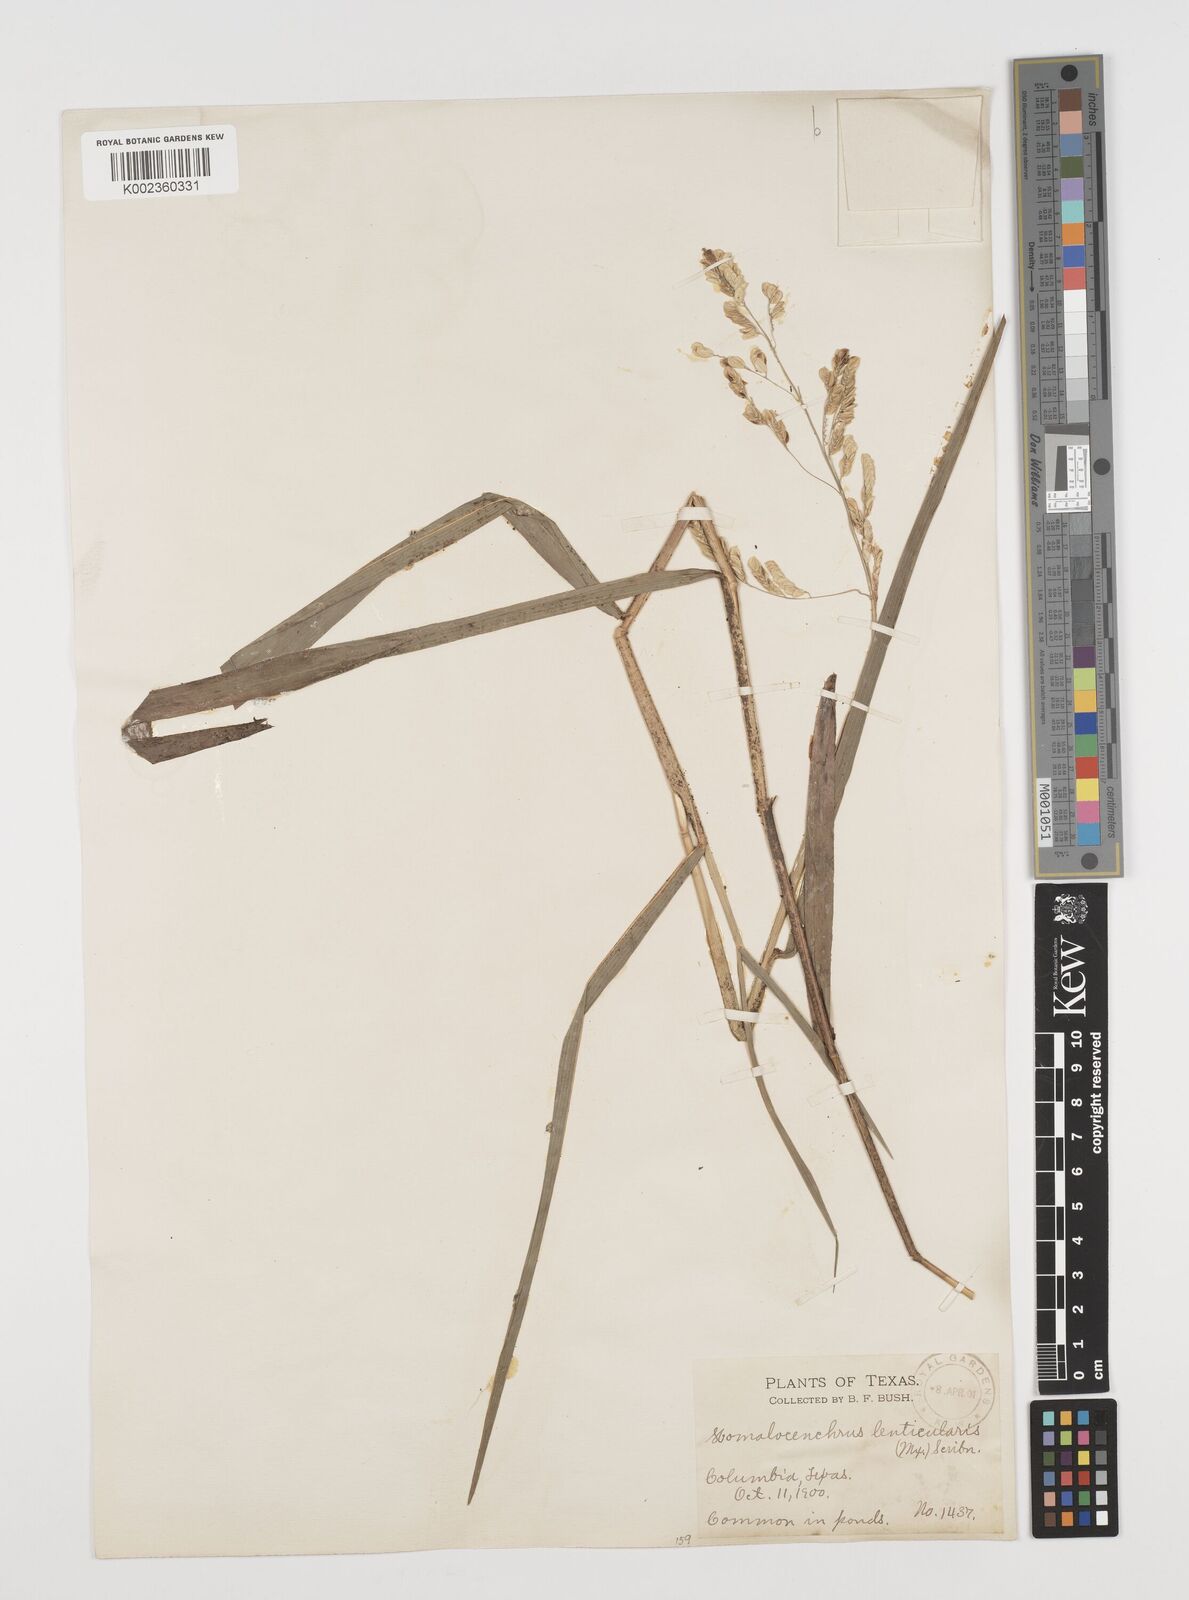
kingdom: Plantae
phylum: Tracheophyta
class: Liliopsida
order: Poales
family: Poaceae
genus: Leersia
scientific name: Leersia lenticularis
